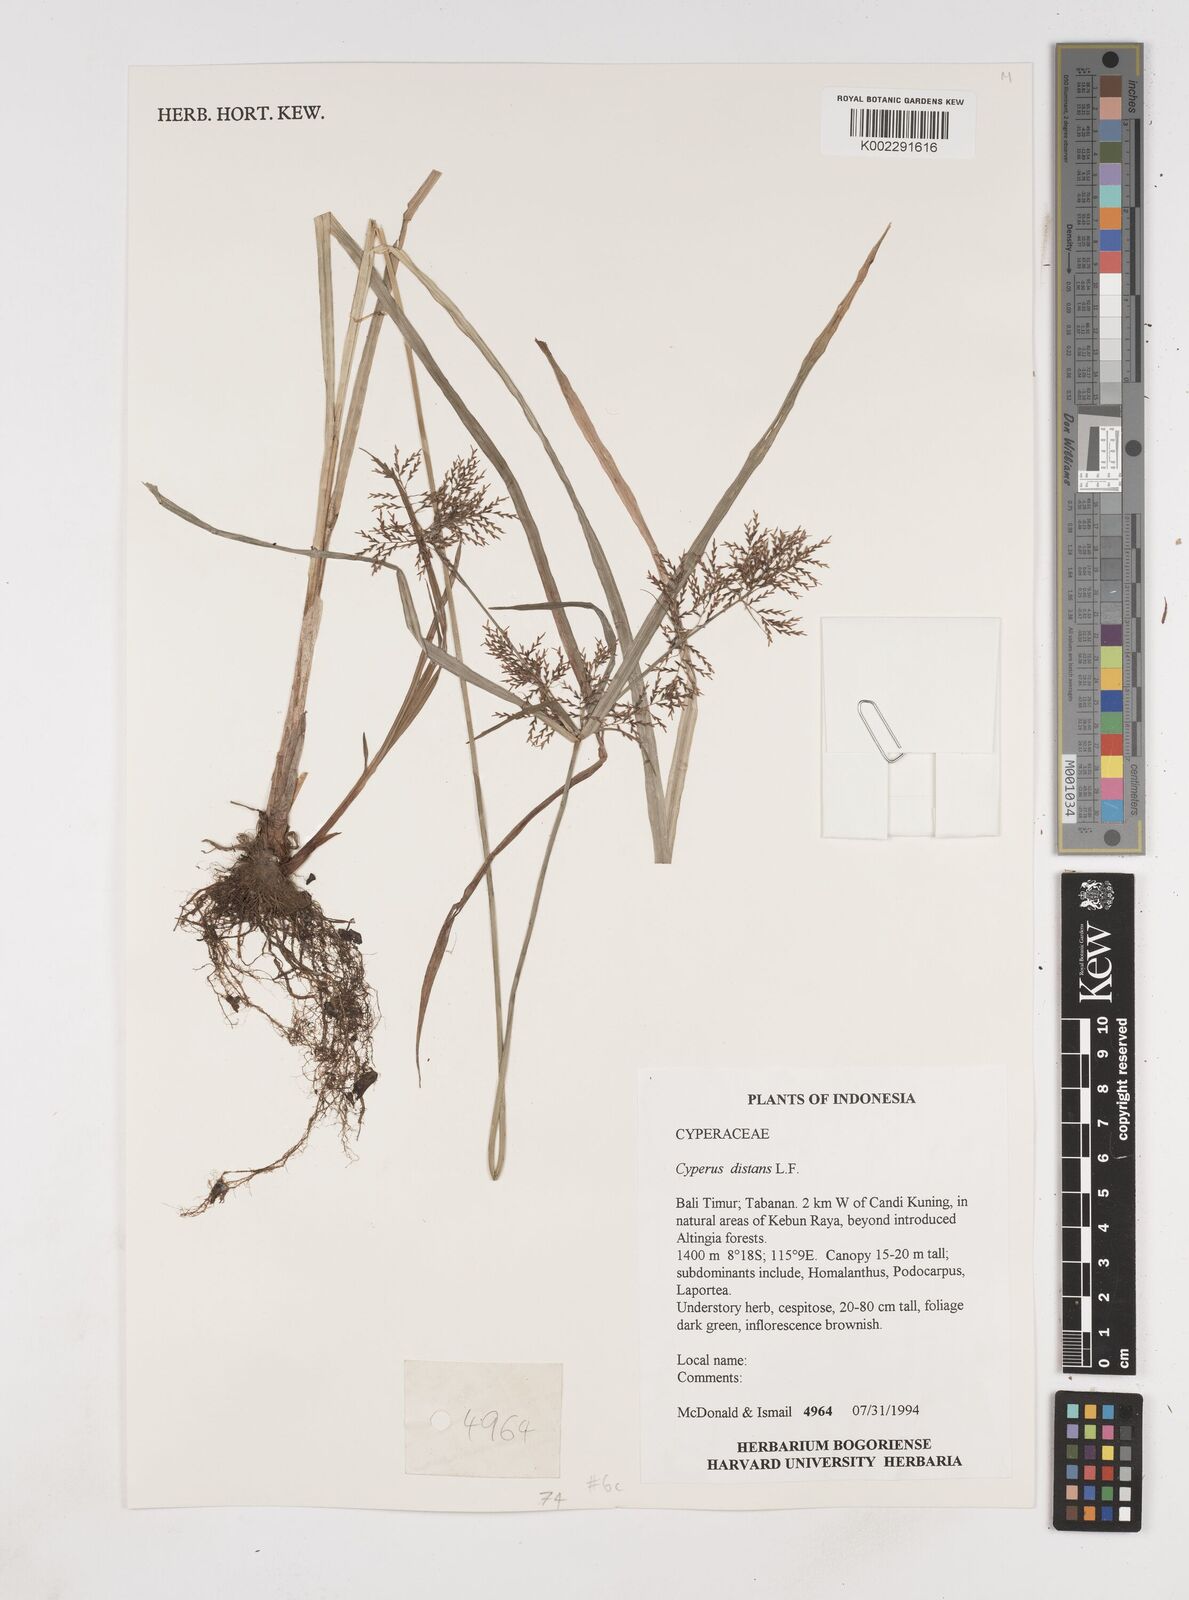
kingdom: Plantae
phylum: Tracheophyta
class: Liliopsida
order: Poales
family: Cyperaceae
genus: Cyperus
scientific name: Cyperus distans
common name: Slender cyperus
